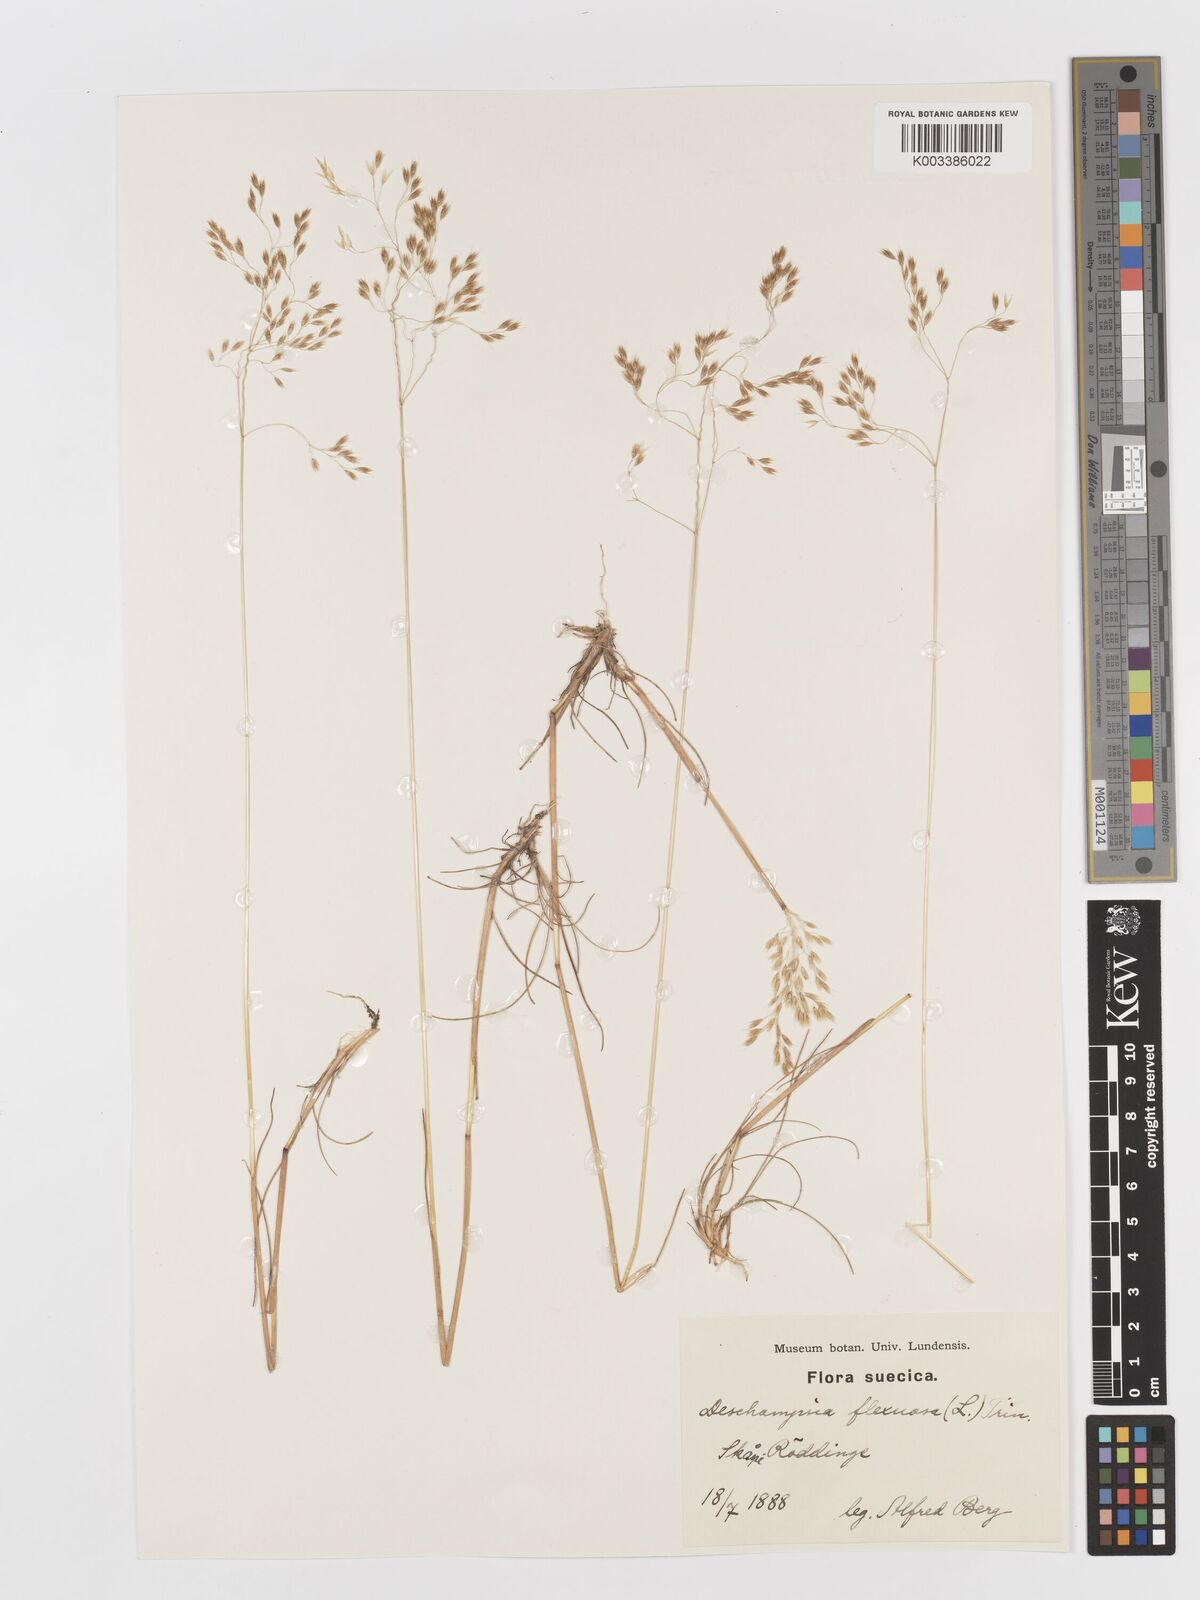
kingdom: Plantae
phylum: Tracheophyta
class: Liliopsida
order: Poales
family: Poaceae
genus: Avenella
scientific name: Avenella flexuosa
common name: Wavy hairgrass
